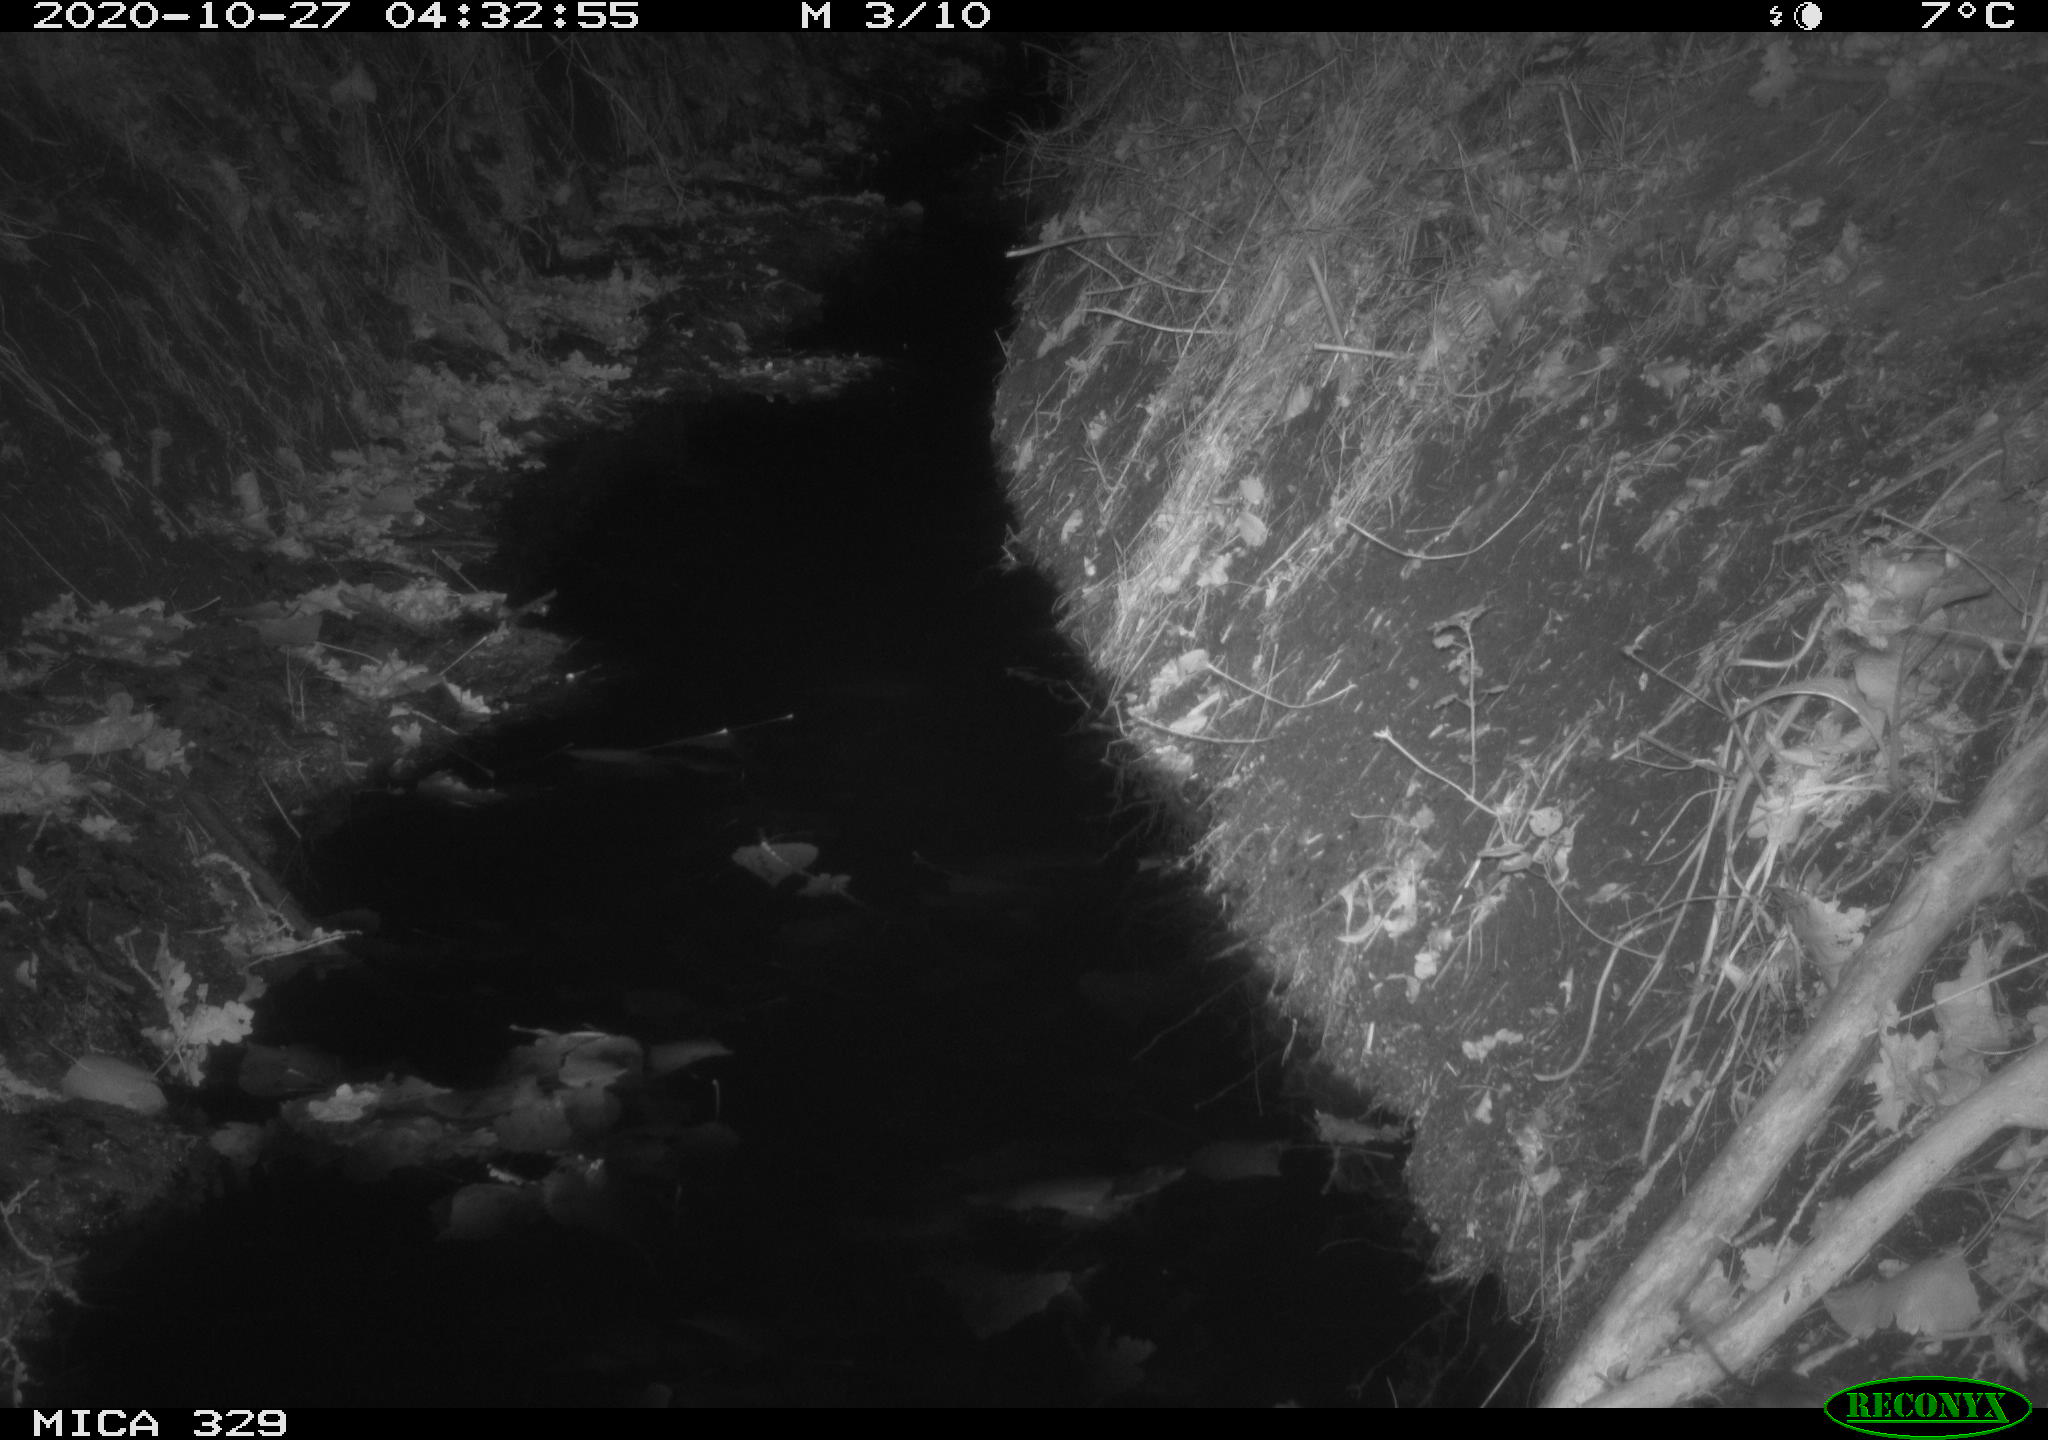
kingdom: Animalia
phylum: Chordata
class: Mammalia
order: Rodentia
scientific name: Rodentia
